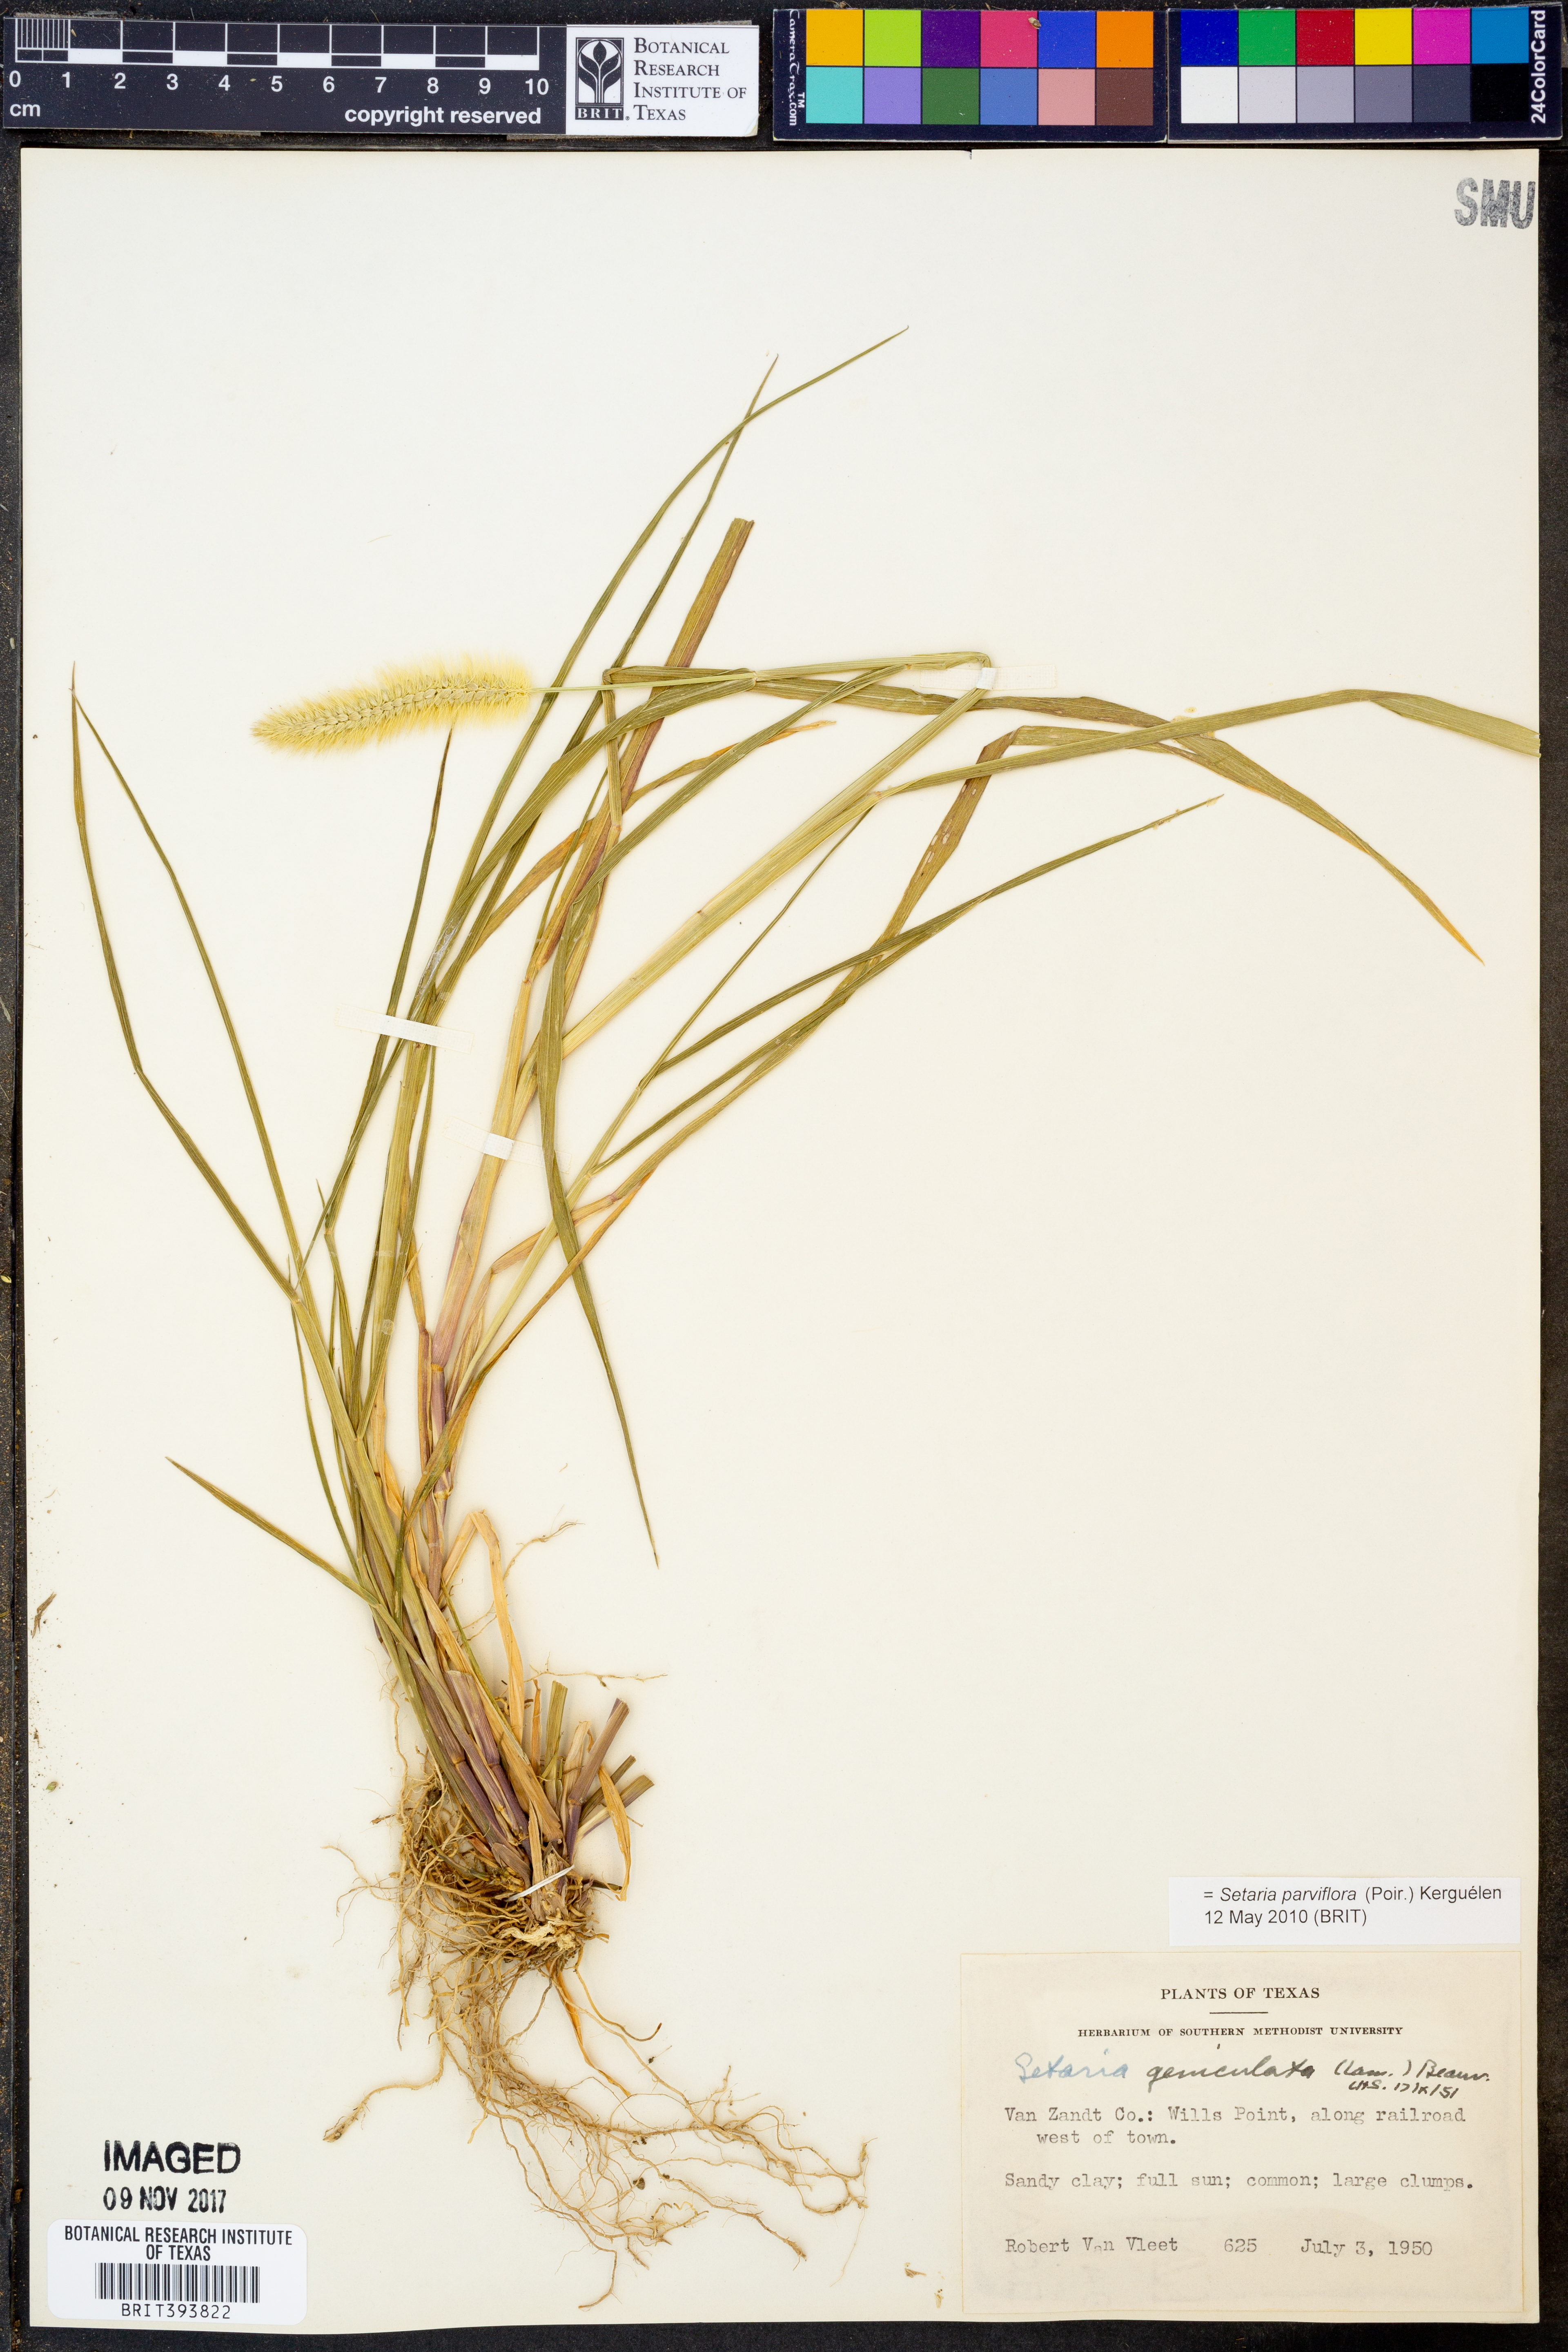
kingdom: Plantae
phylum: Tracheophyta
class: Liliopsida
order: Poales
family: Poaceae
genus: Setaria
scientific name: Setaria parviflora
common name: Knotroot bristle-grass
